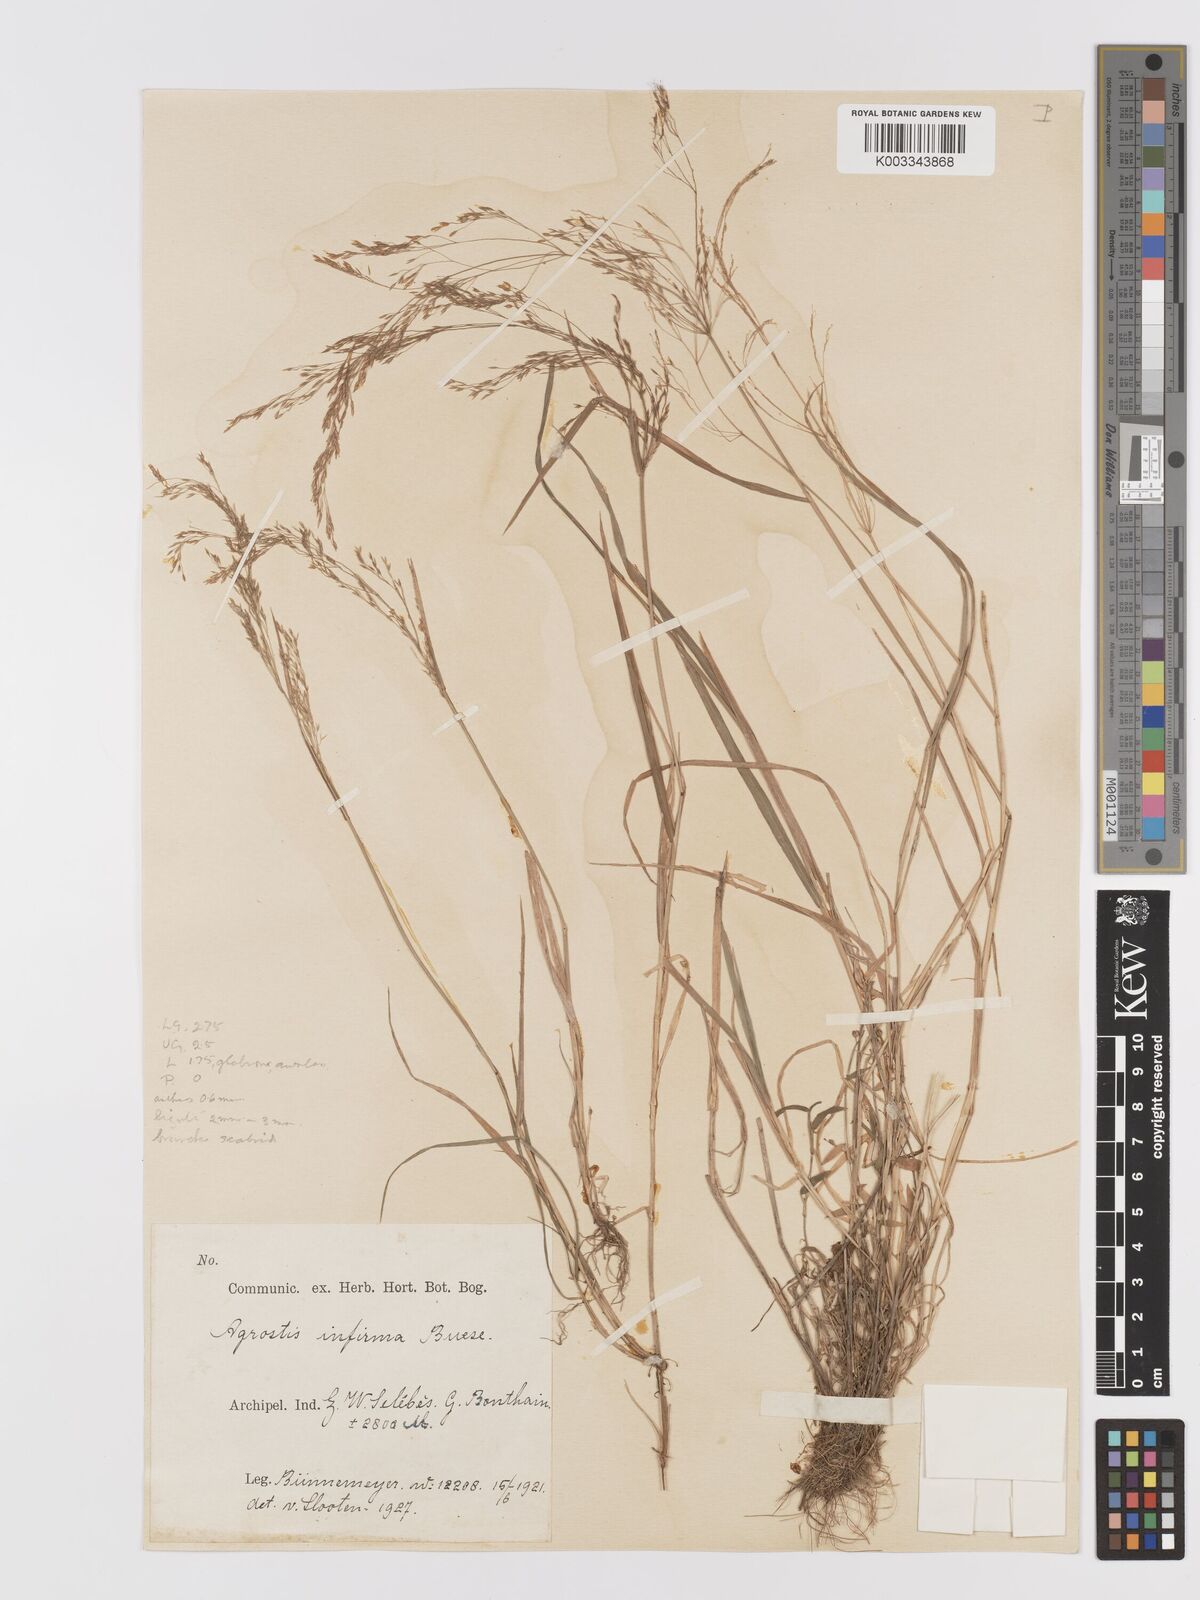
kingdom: Plantae
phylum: Tracheophyta
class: Liliopsida
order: Poales
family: Poaceae
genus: Agrostis
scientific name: Agrostis infirma
